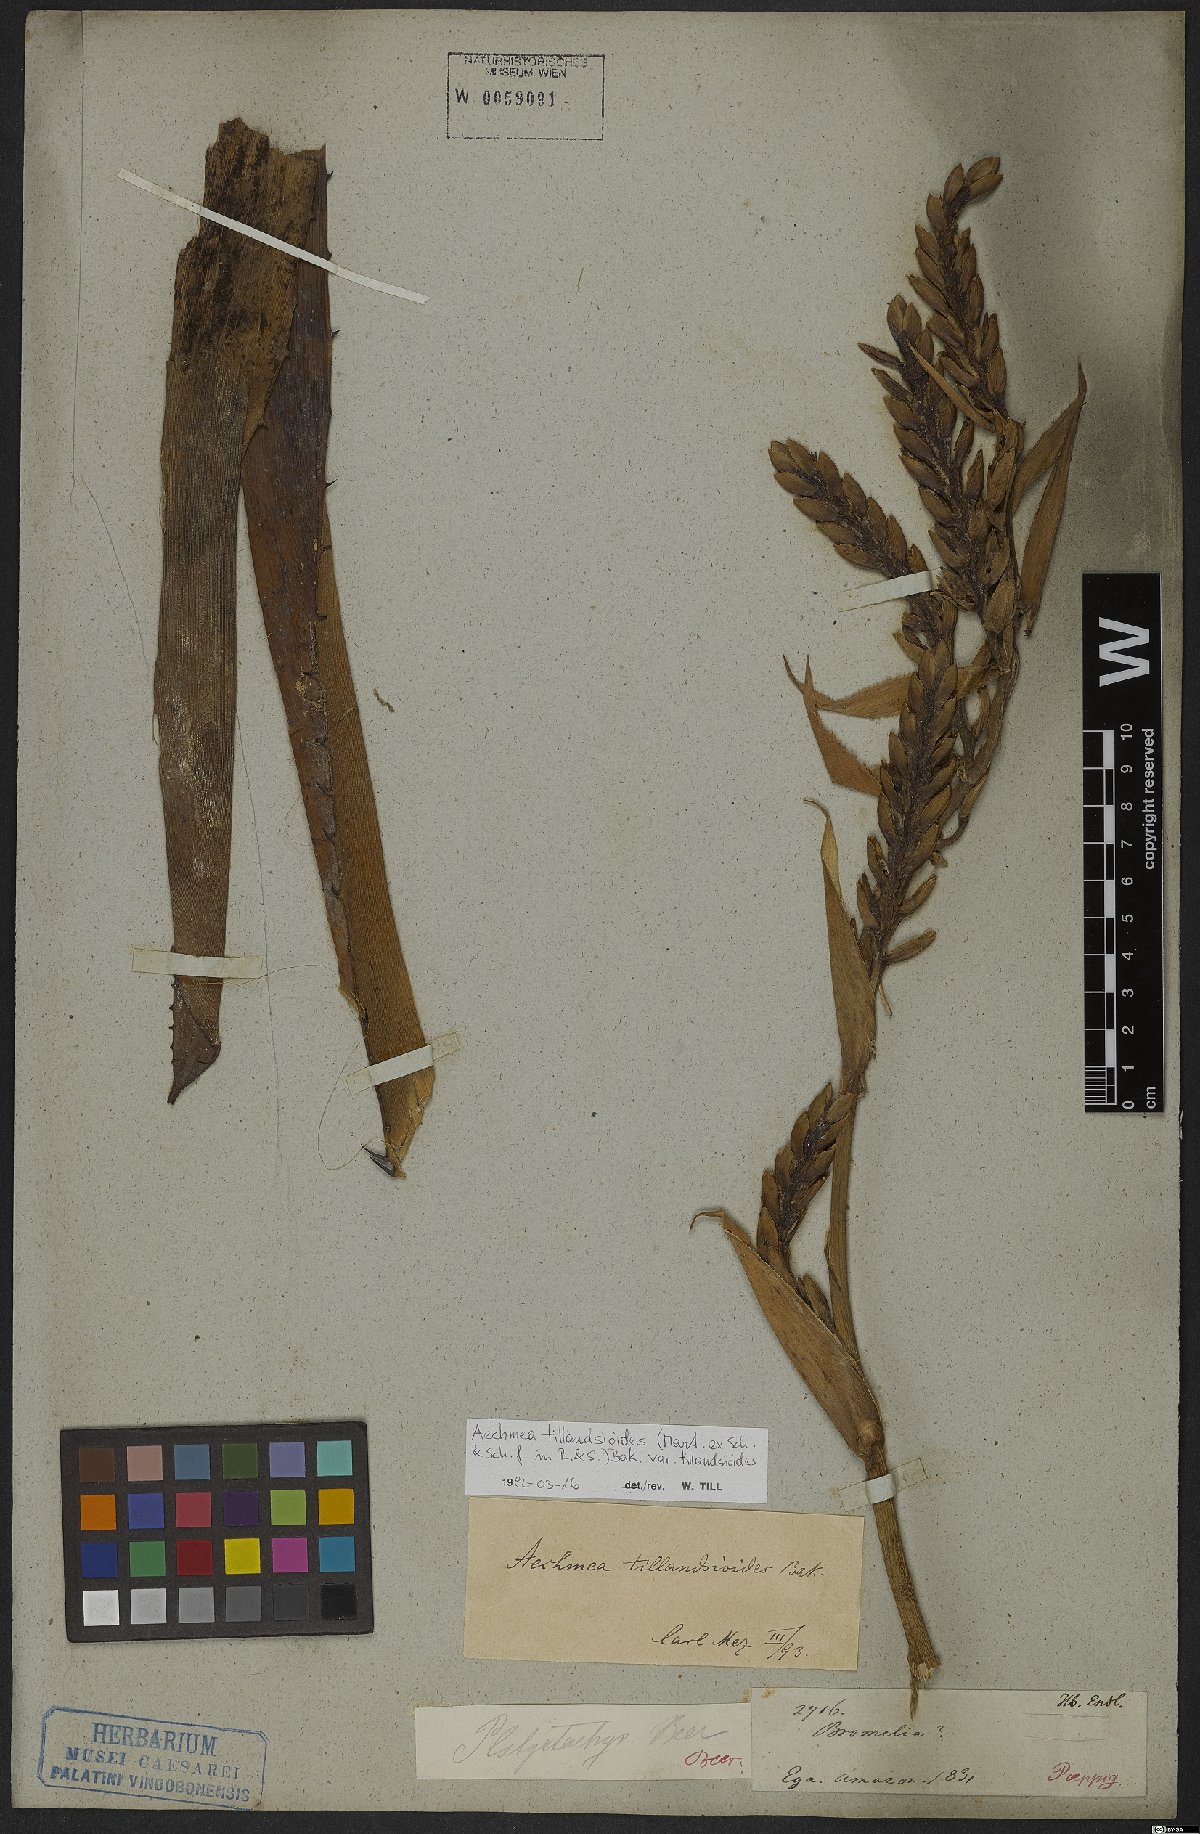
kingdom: Plantae
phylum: Tracheophyta
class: Liliopsida
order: Poales
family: Bromeliaceae
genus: Aechmea
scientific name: Aechmea tillandsioides
